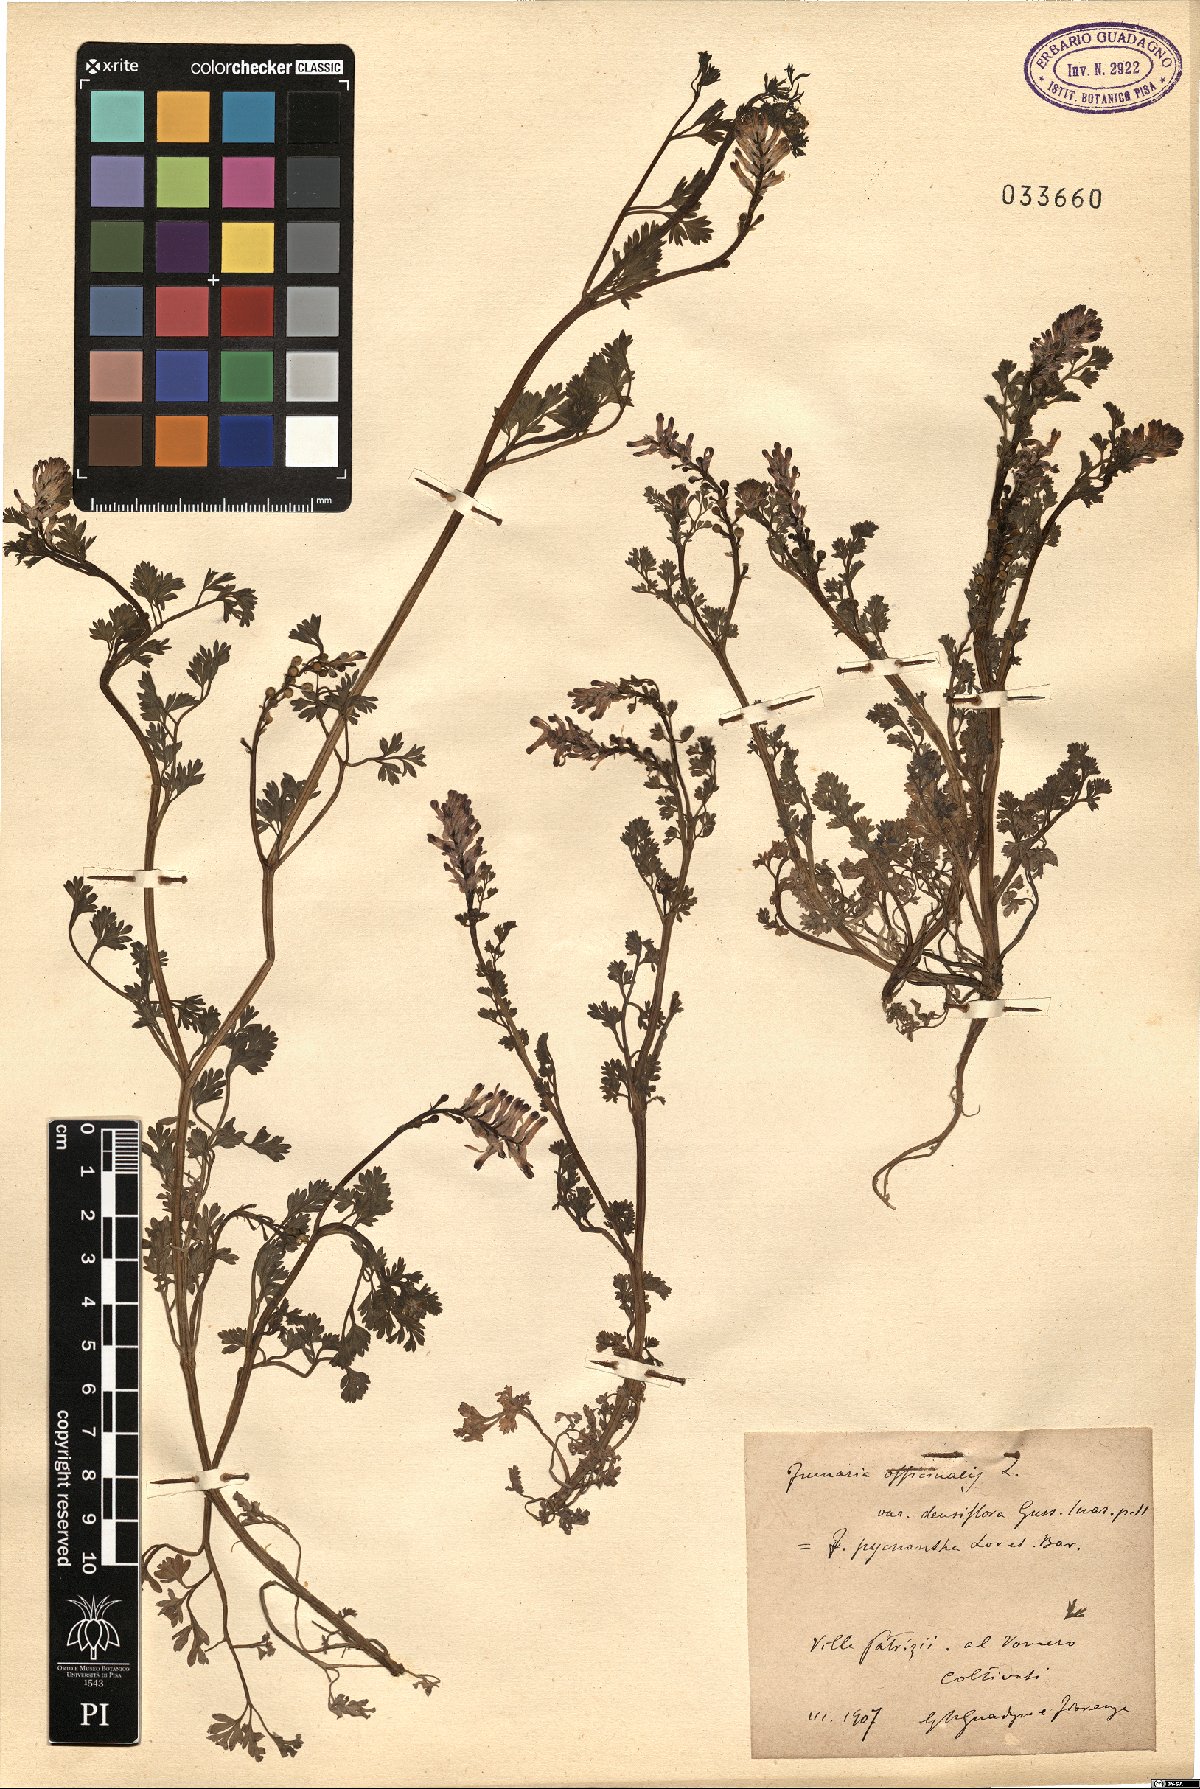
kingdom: Plantae
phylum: Tracheophyta
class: Magnoliopsida
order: Ranunculales
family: Papaveraceae
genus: Fumaria
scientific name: Fumaria densiflora
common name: Dense-flowered fumitory
